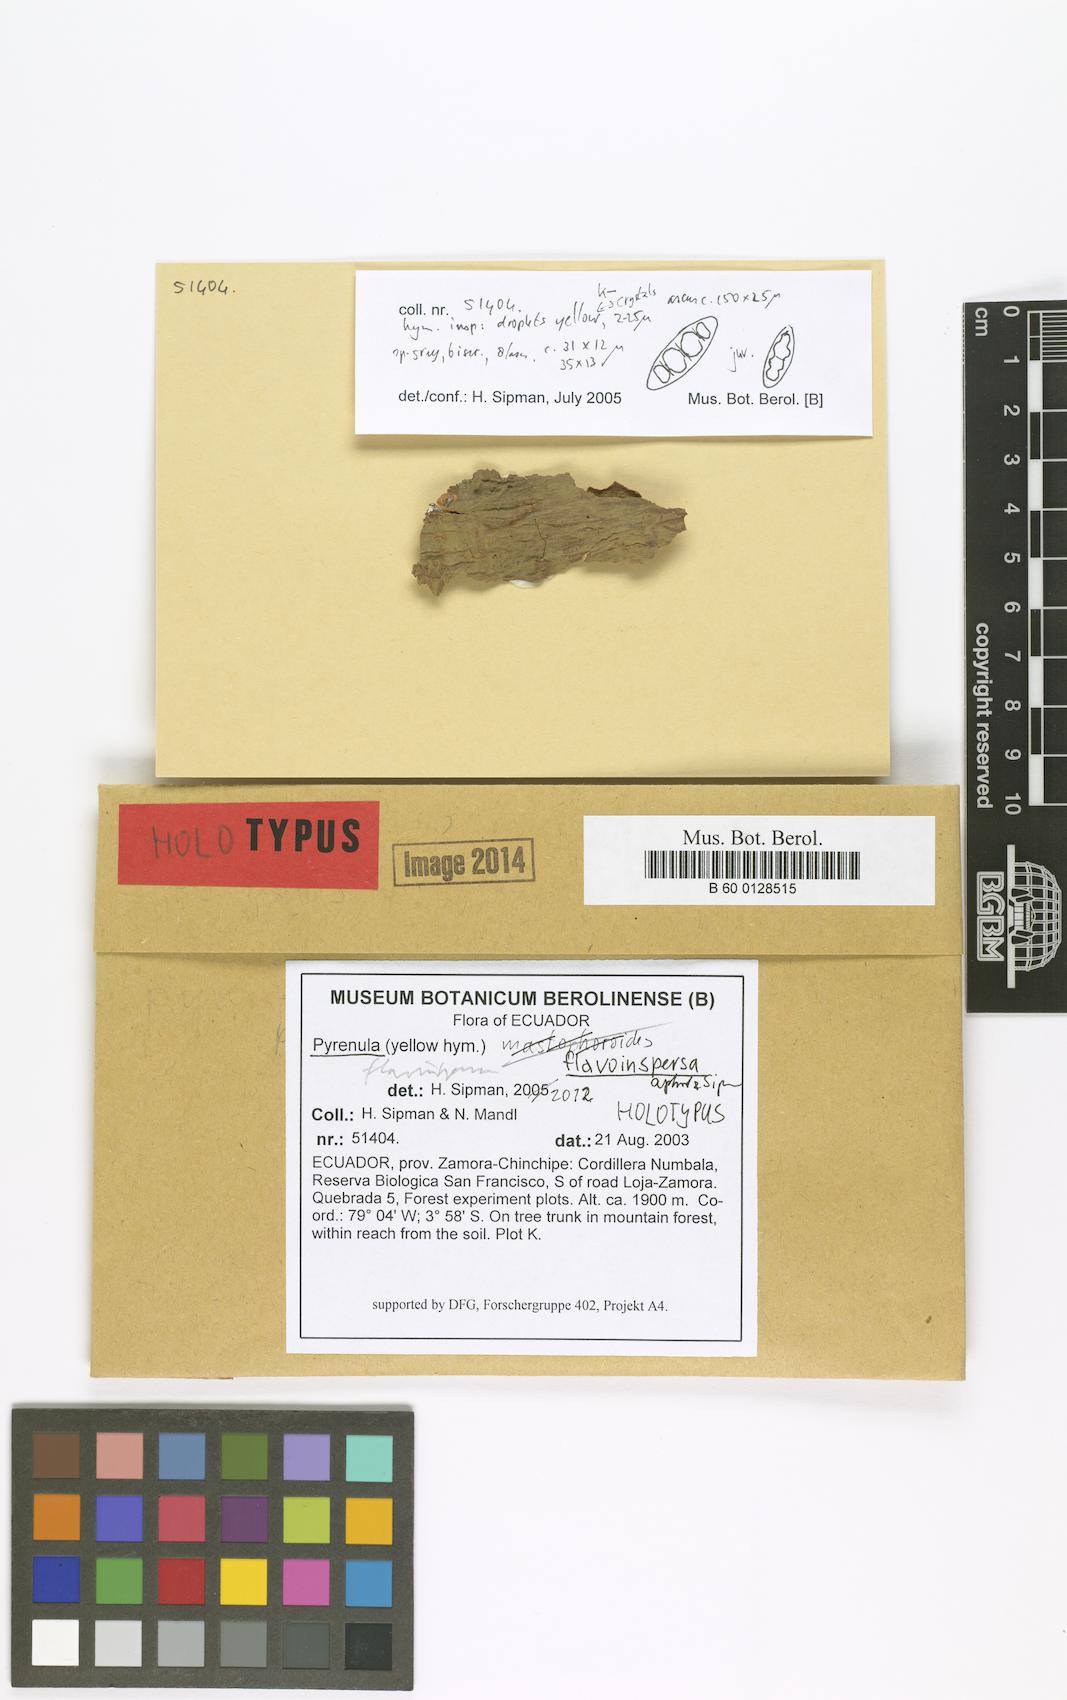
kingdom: Fungi
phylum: Ascomycota
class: Eurotiomycetes
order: Pyrenulales
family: Pyrenulaceae
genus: Pyrenula
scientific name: Pyrenula flavoinspersa
